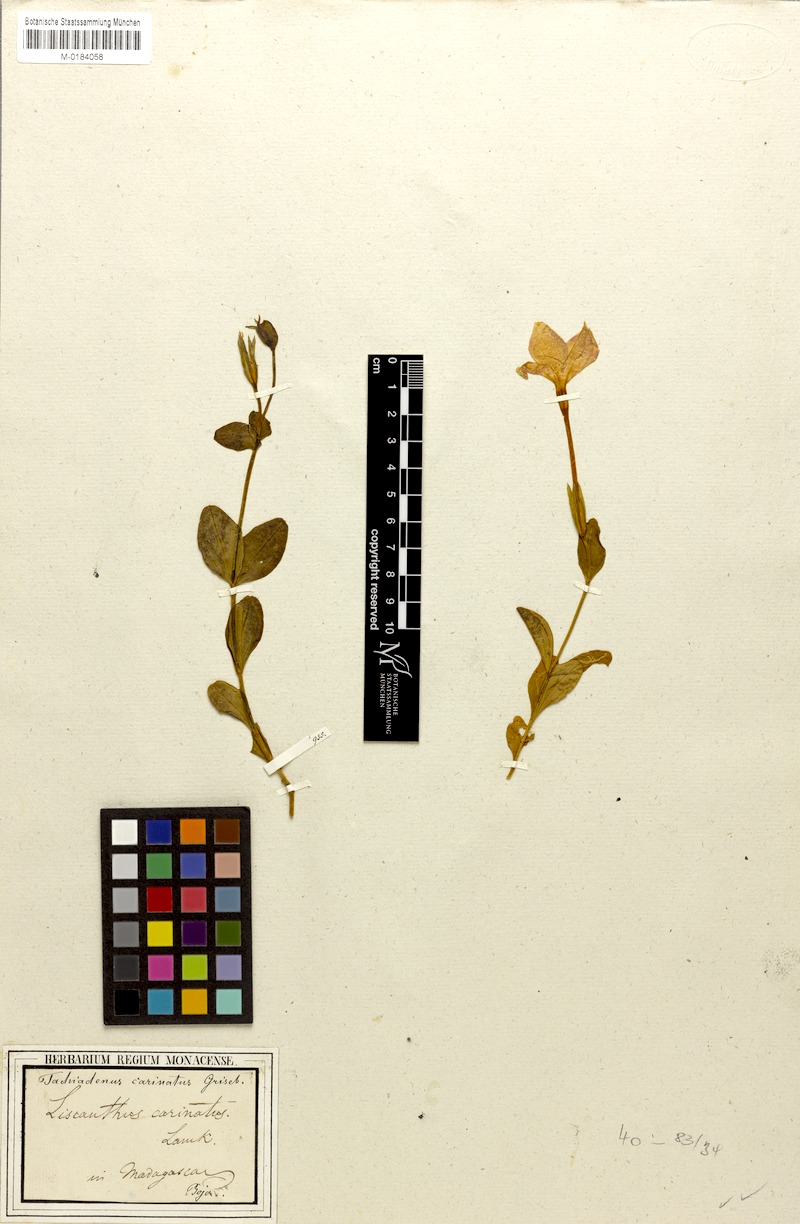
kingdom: Plantae
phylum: Tracheophyta
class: Magnoliopsida
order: Gentianales
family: Gentianaceae
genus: Tachiadenus
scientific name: Tachiadenus carinatus
